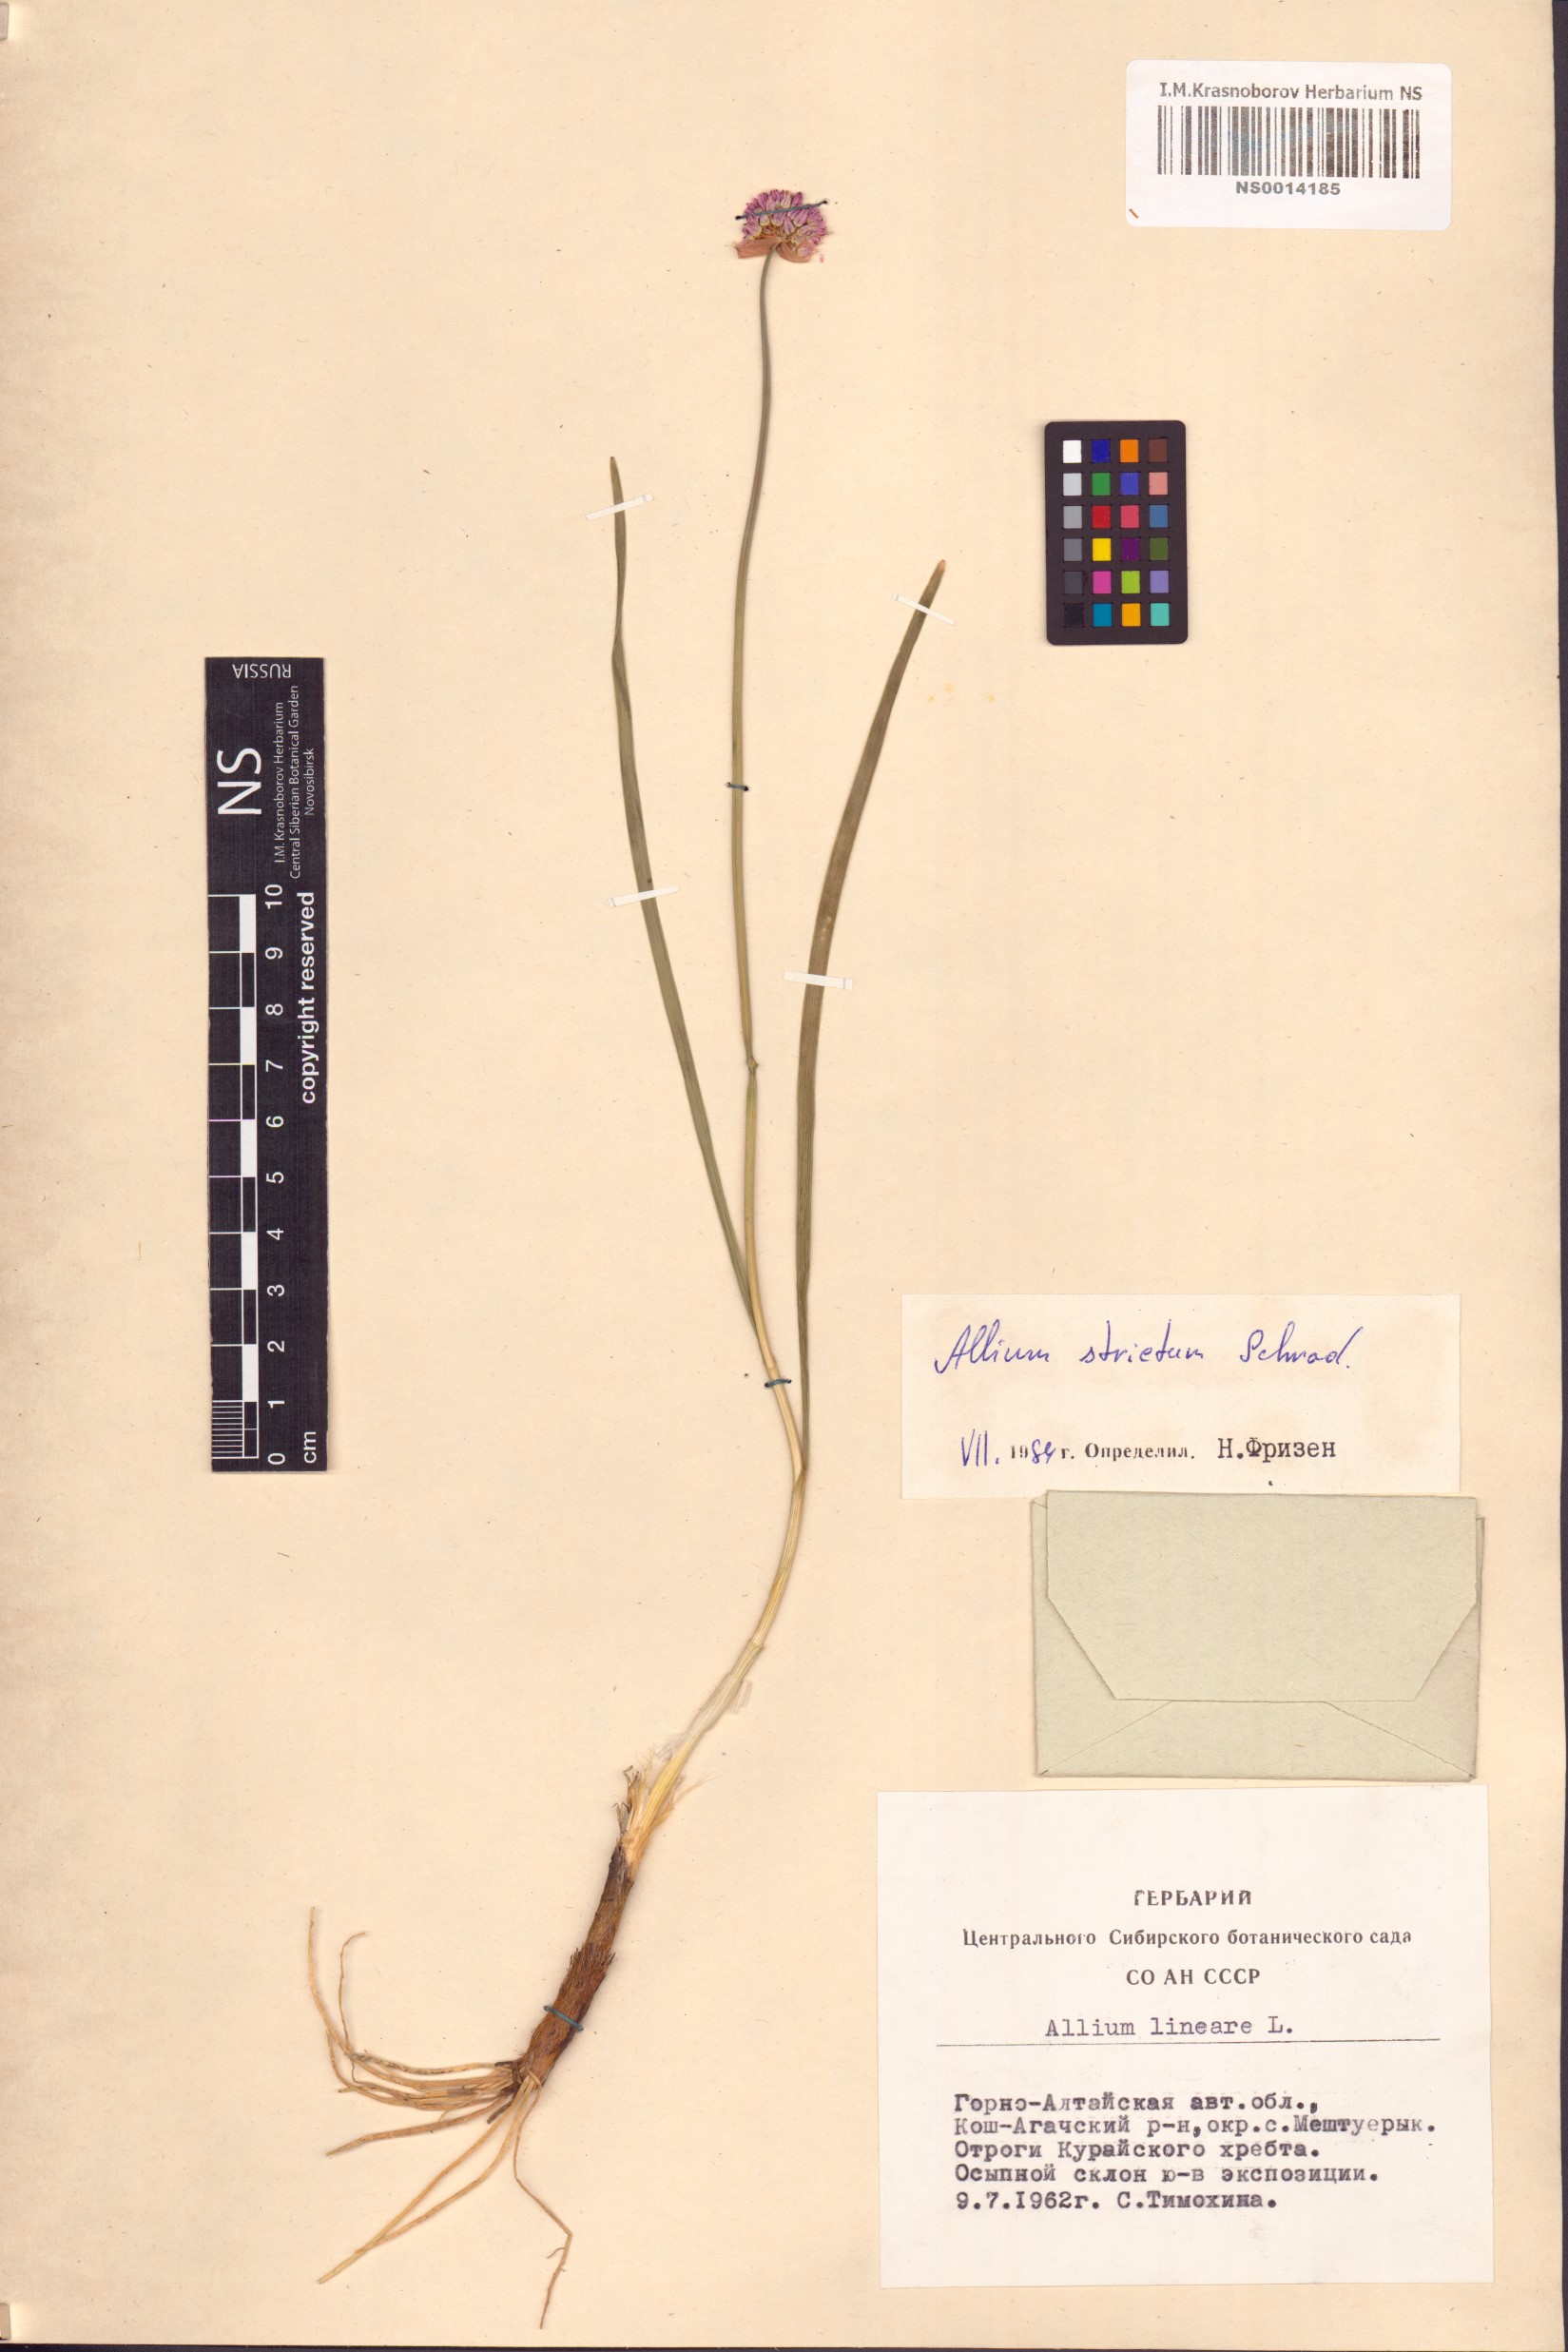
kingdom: Plantae
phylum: Tracheophyta
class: Liliopsida
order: Asparagales
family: Amaryllidaceae
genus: Allium
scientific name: Allium strictum
